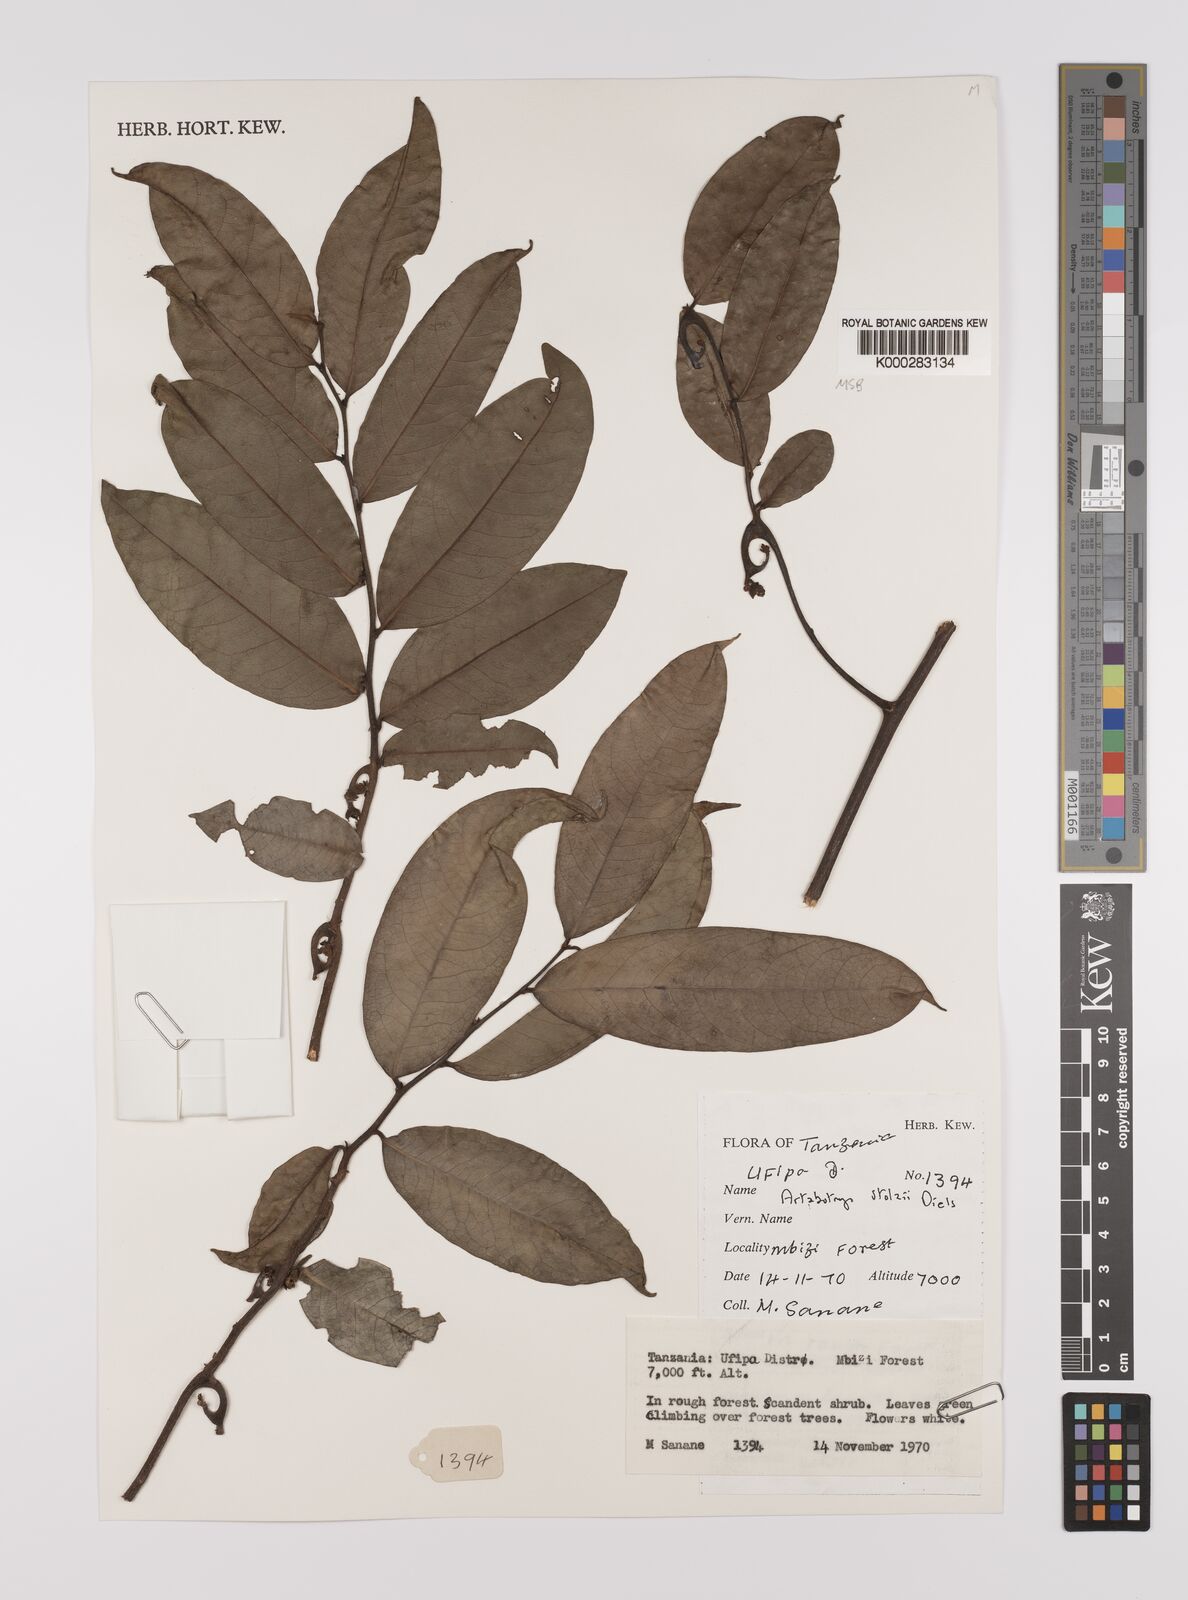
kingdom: Plantae
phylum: Tracheophyta
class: Magnoliopsida
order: Magnoliales
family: Annonaceae
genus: Artabotrys
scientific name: Artabotrys stolzii
